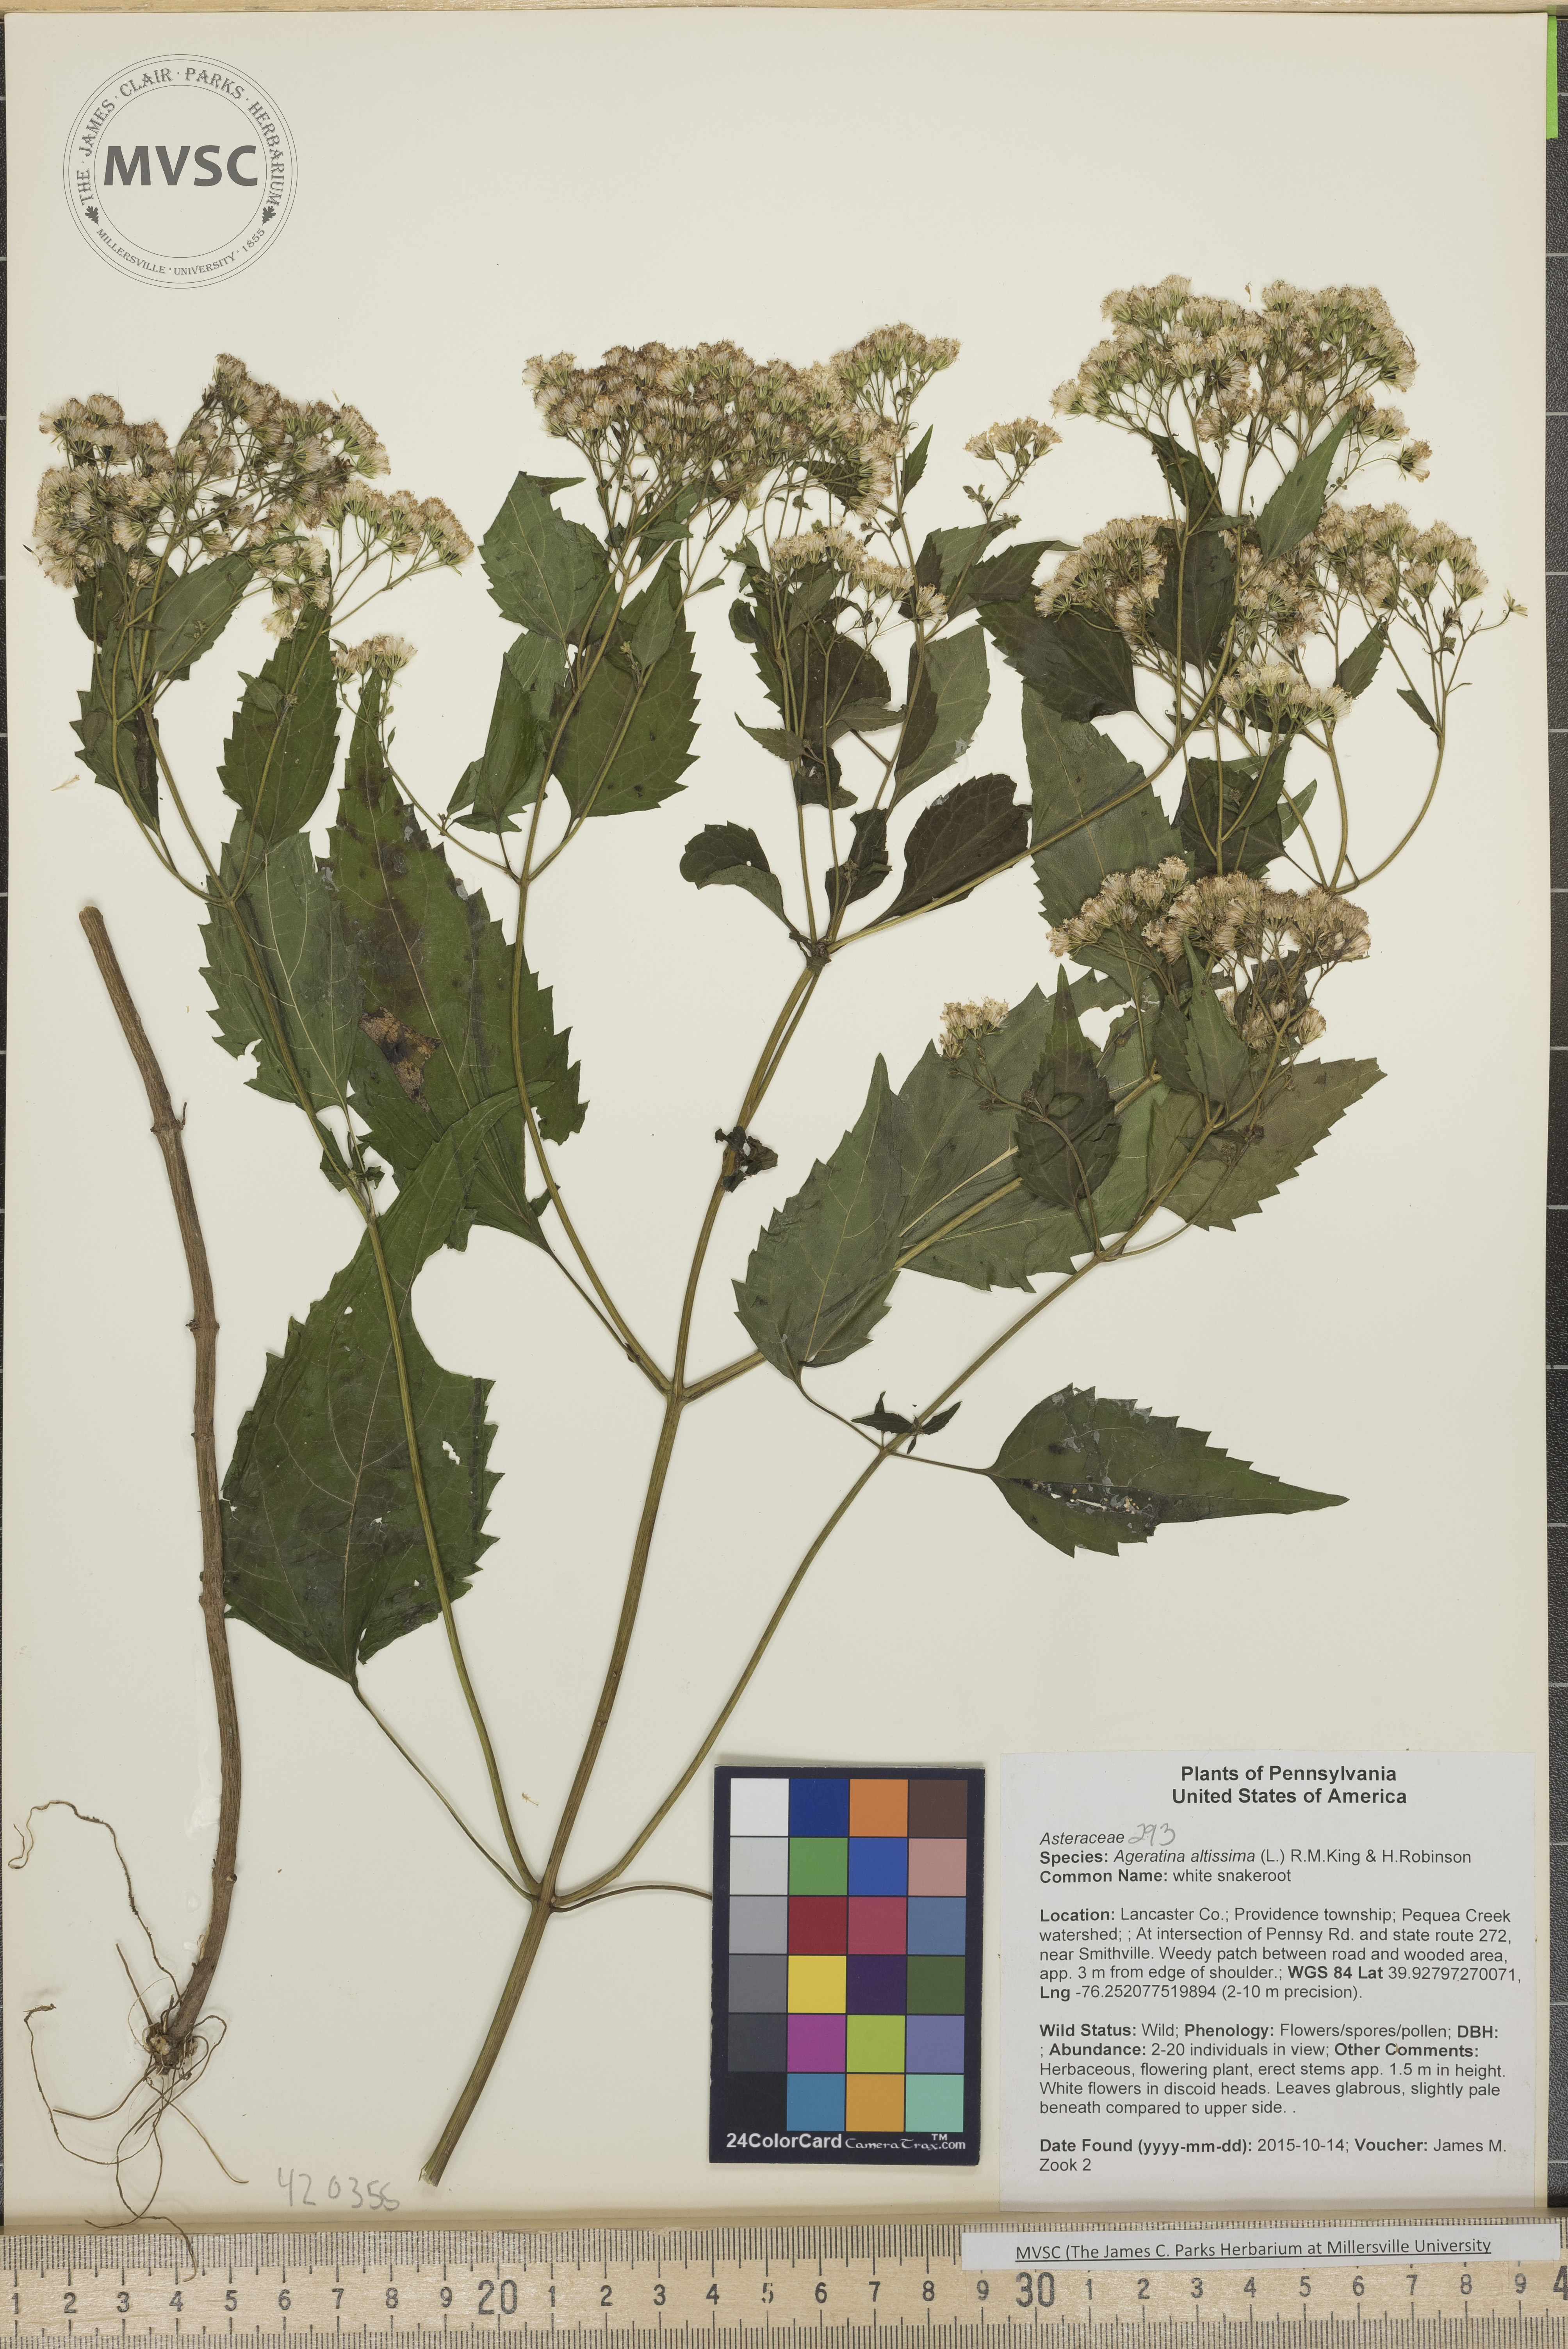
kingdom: Plantae
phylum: Tracheophyta
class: Magnoliopsida
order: Asterales
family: Asteraceae
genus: Ageratina
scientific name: Ageratina altissima
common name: white snakeroot
